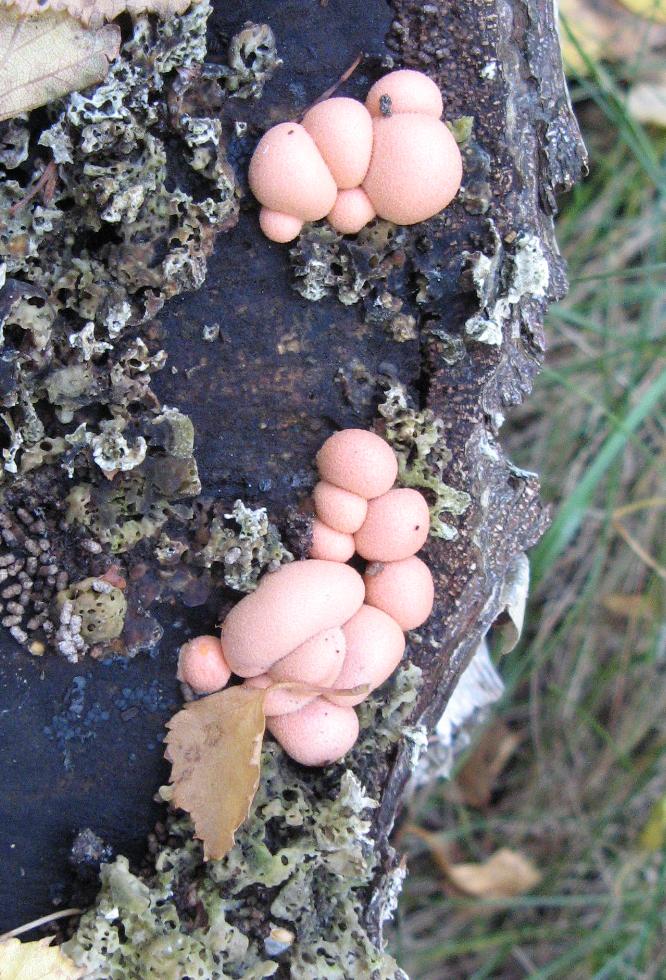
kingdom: Protozoa
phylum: Mycetozoa
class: Myxomycetes
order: Cribrariales
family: Tubiferaceae
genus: Lycogala
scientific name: Lycogala epidendrum
